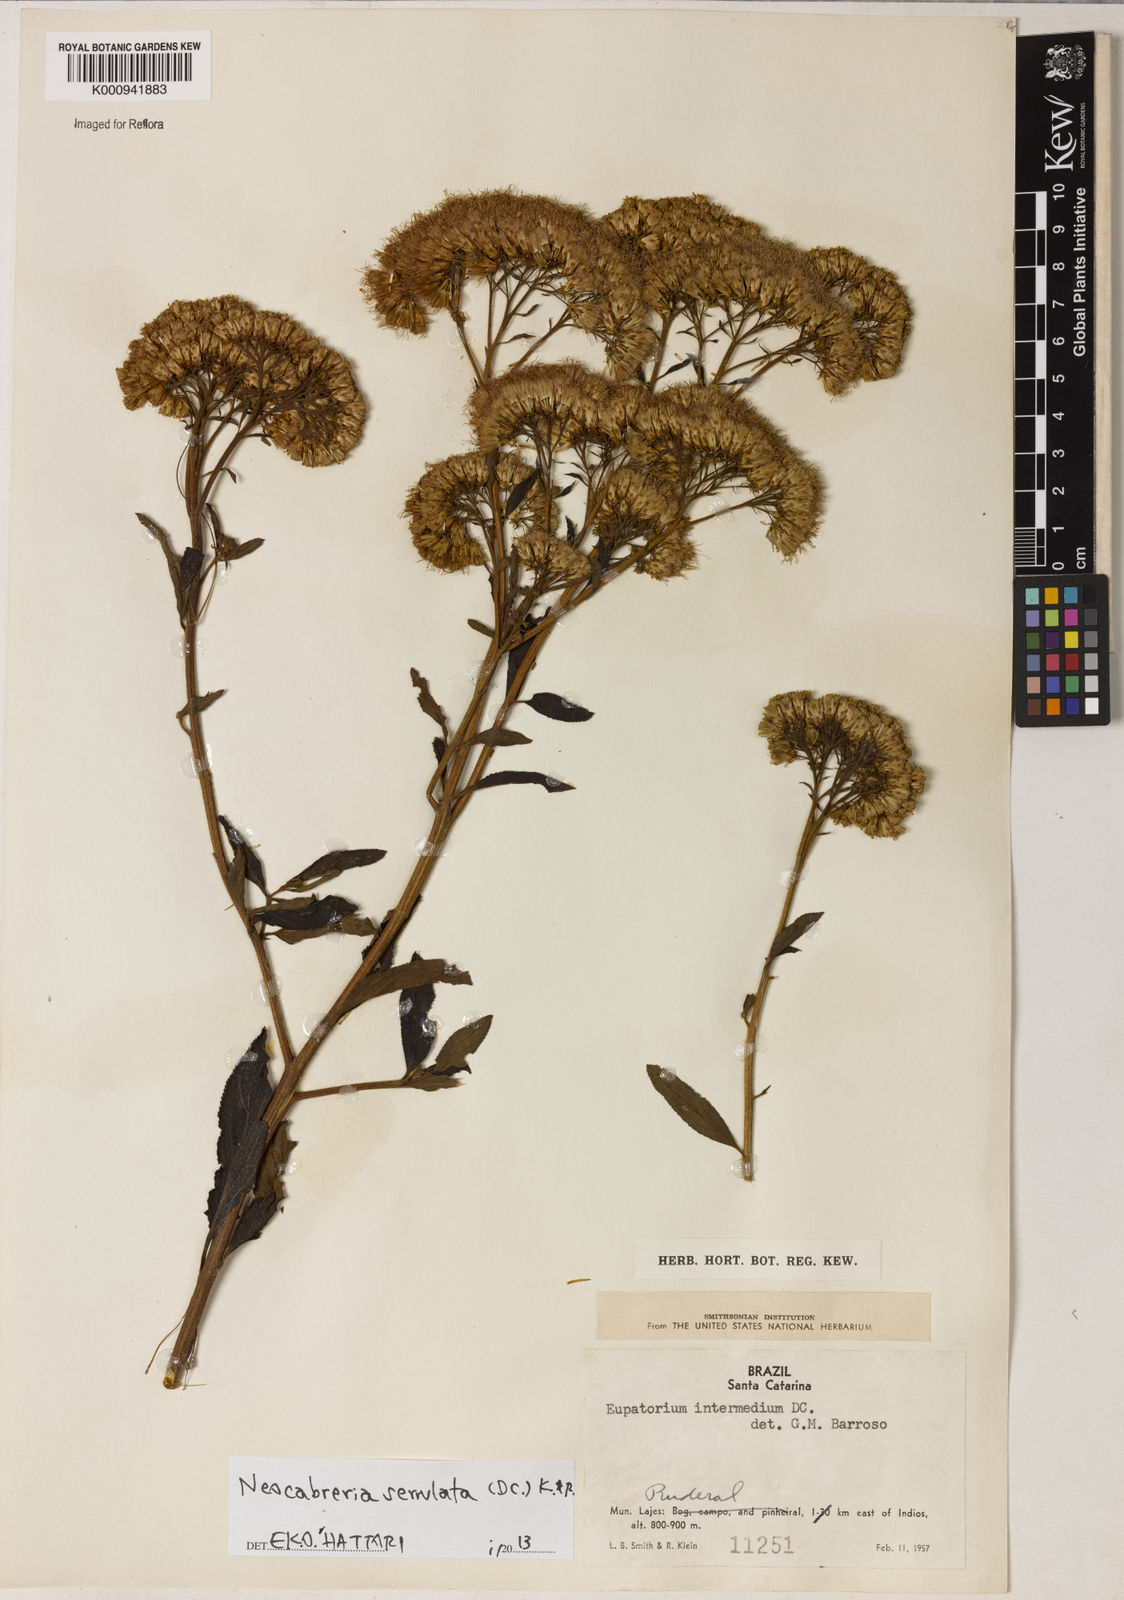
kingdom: Plantae
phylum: Tracheophyta
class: Magnoliopsida
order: Asterales
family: Asteraceae
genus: Neocabreria
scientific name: Neocabreria serrulata
